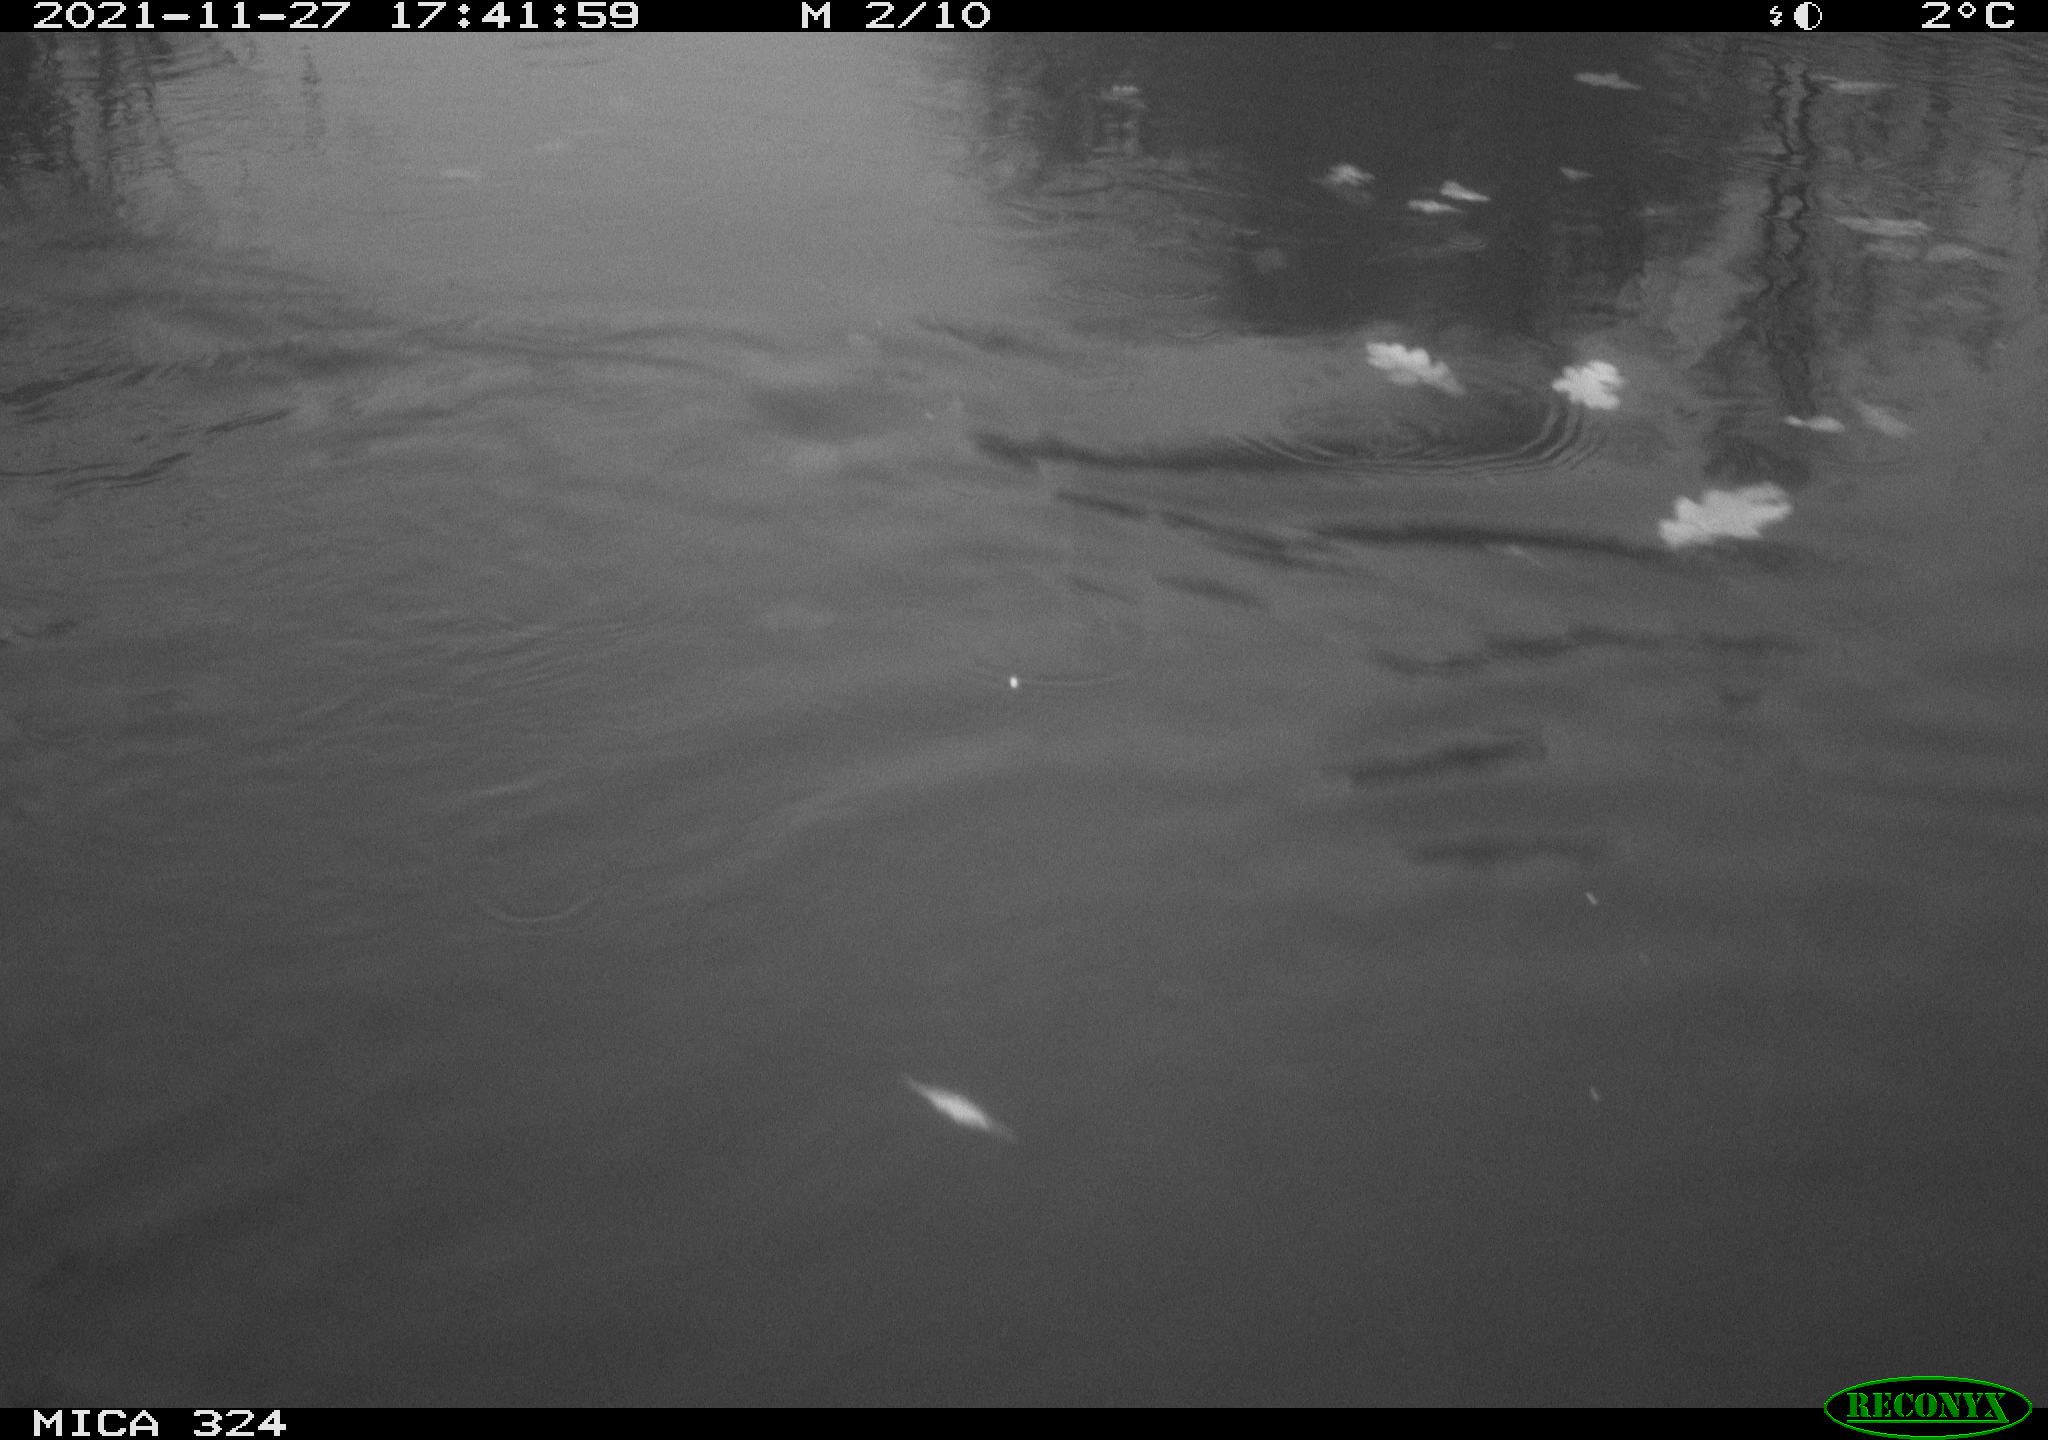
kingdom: Animalia
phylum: Chordata
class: Mammalia
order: Rodentia
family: Cricetidae
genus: Ondatra
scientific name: Ondatra zibethicus
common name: Muskrat
